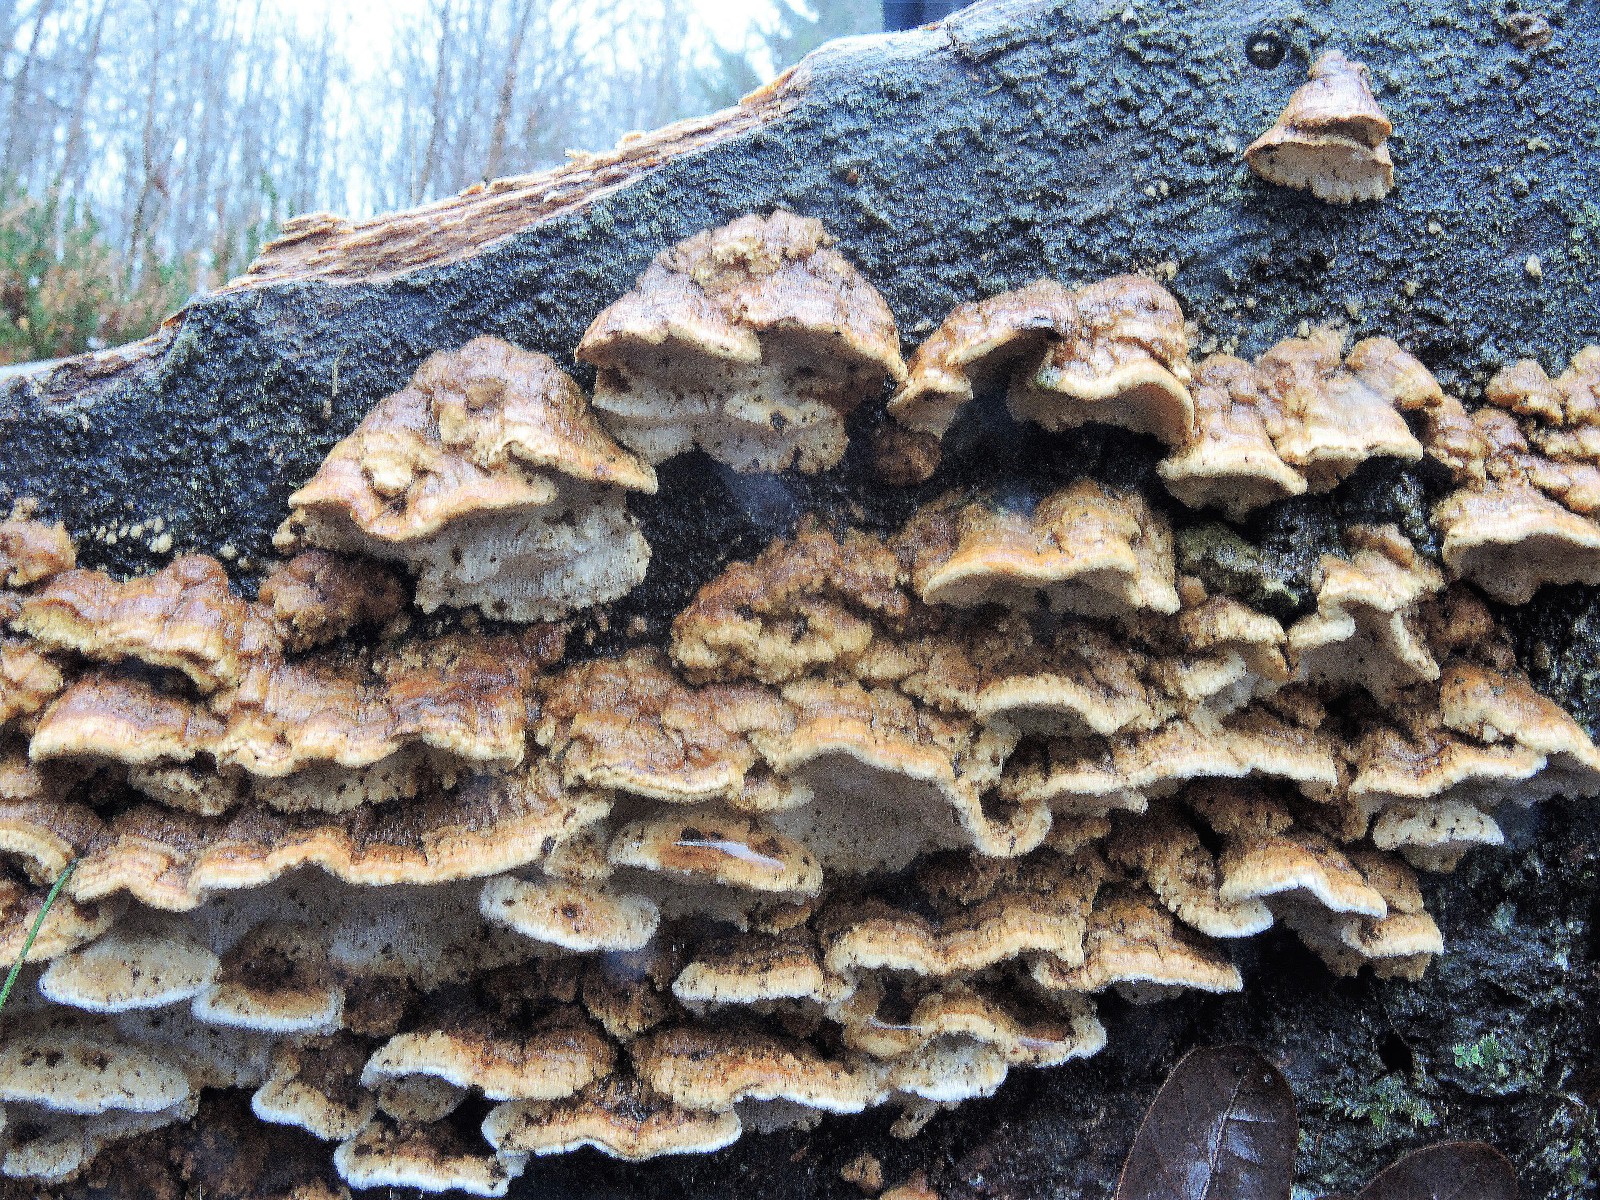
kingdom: Fungi
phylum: Basidiomycota
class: Agaricomycetes
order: Polyporales
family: Fomitopsidaceae
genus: Neoantrodia
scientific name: Neoantrodia serialis
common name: række-sejporesvamp
